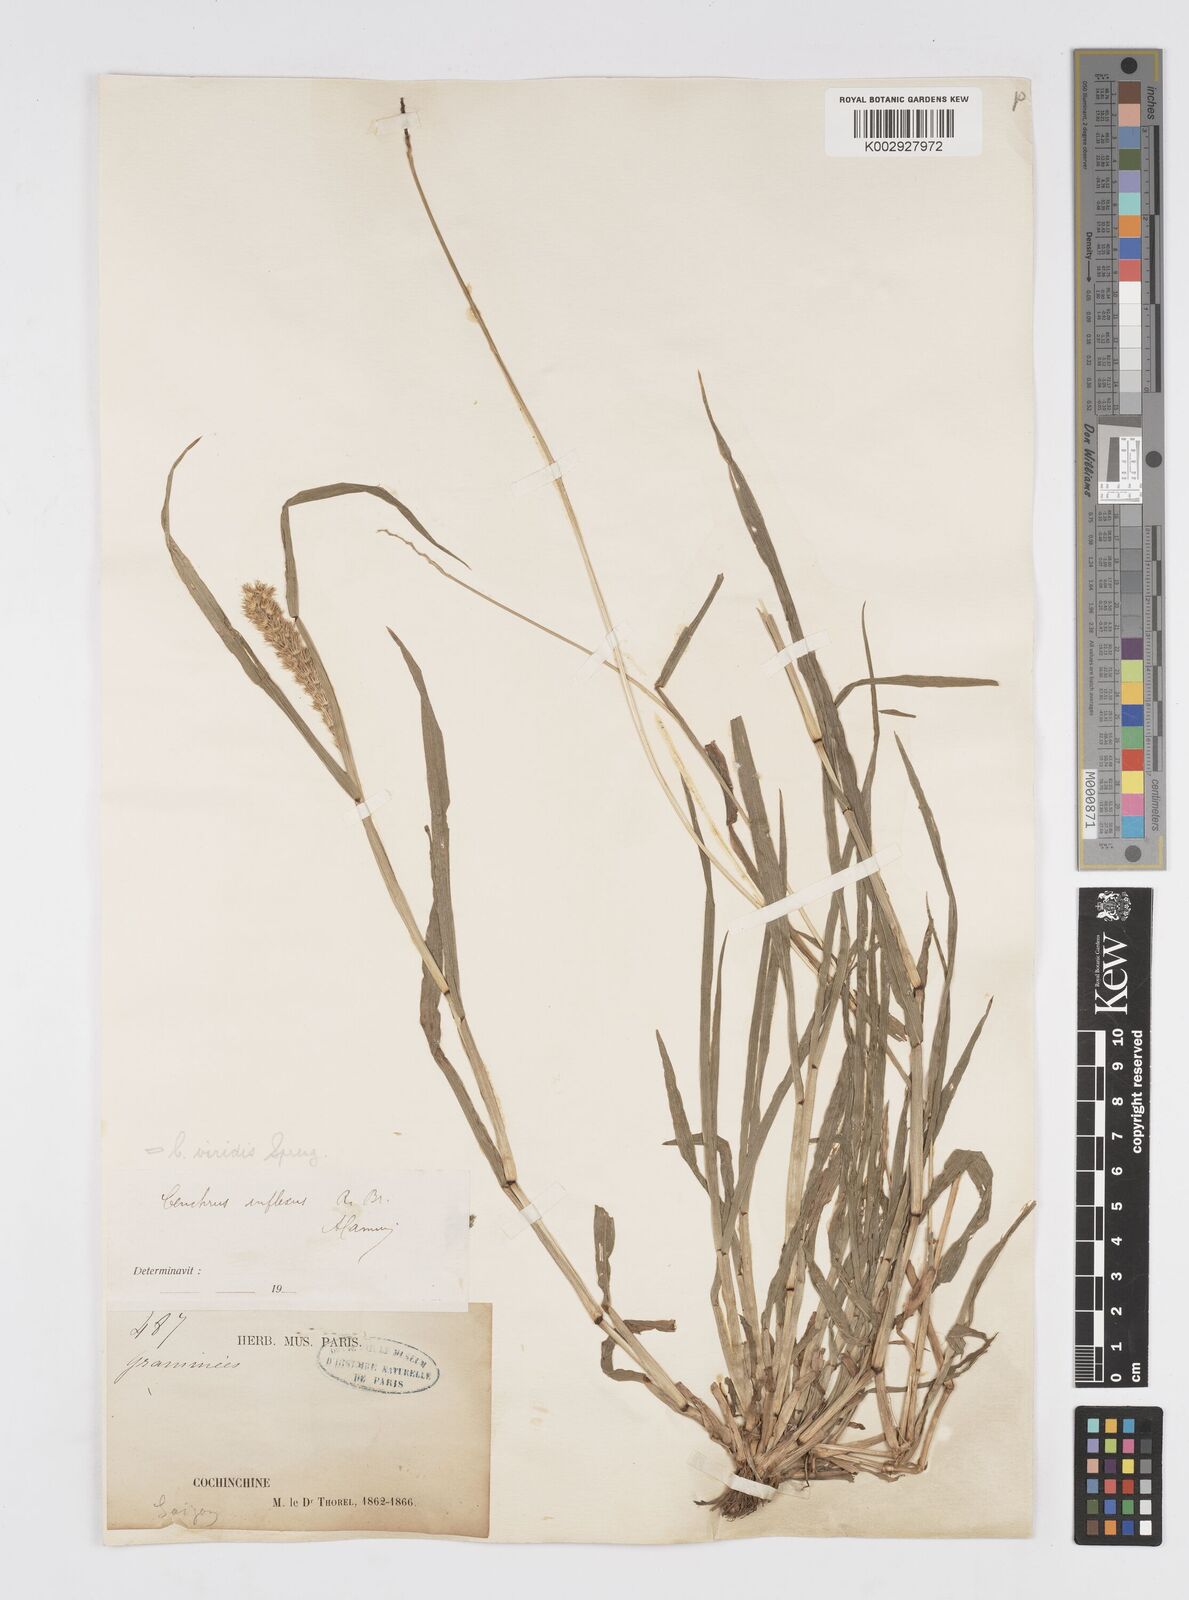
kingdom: Plantae
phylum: Tracheophyta
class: Liliopsida
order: Poales
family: Poaceae
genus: Cenchrus
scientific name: Cenchrus brownii
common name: Slim-bristle sandbur
